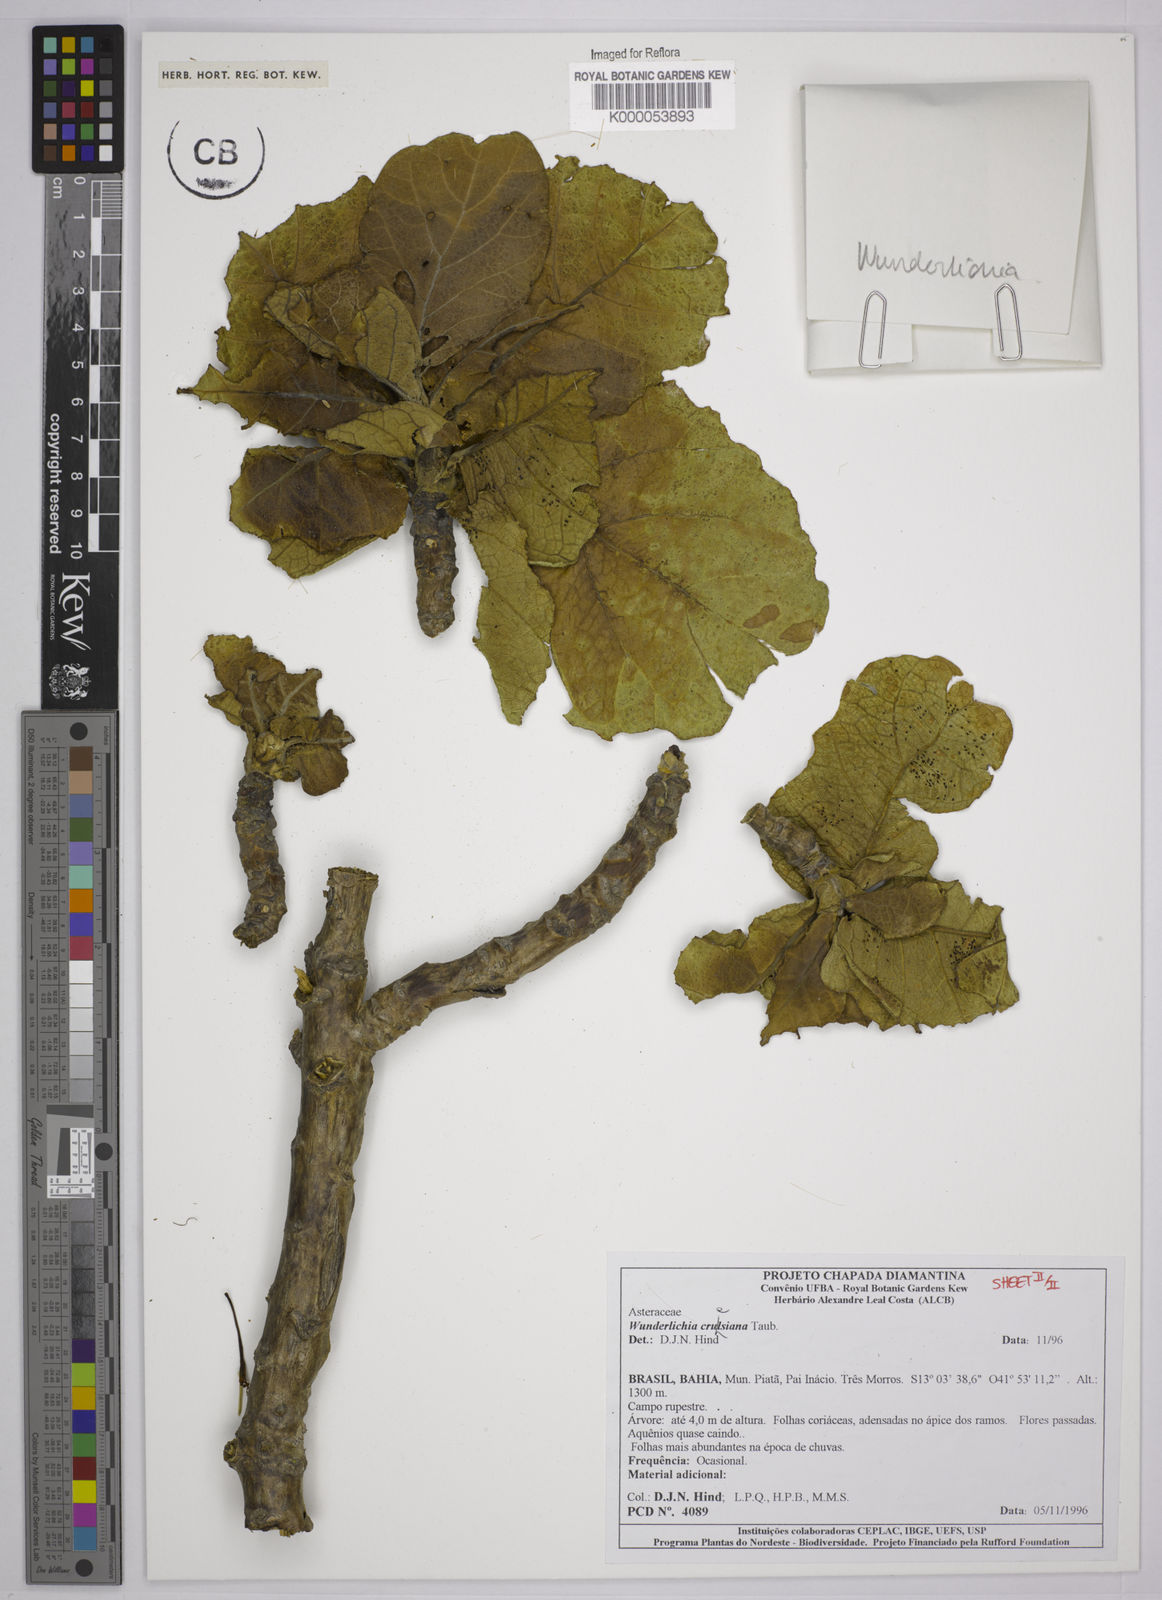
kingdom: Plantae
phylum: Tracheophyta
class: Magnoliopsida
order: Asterales
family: Asteraceae
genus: Wunderlichia
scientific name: Wunderlichia
